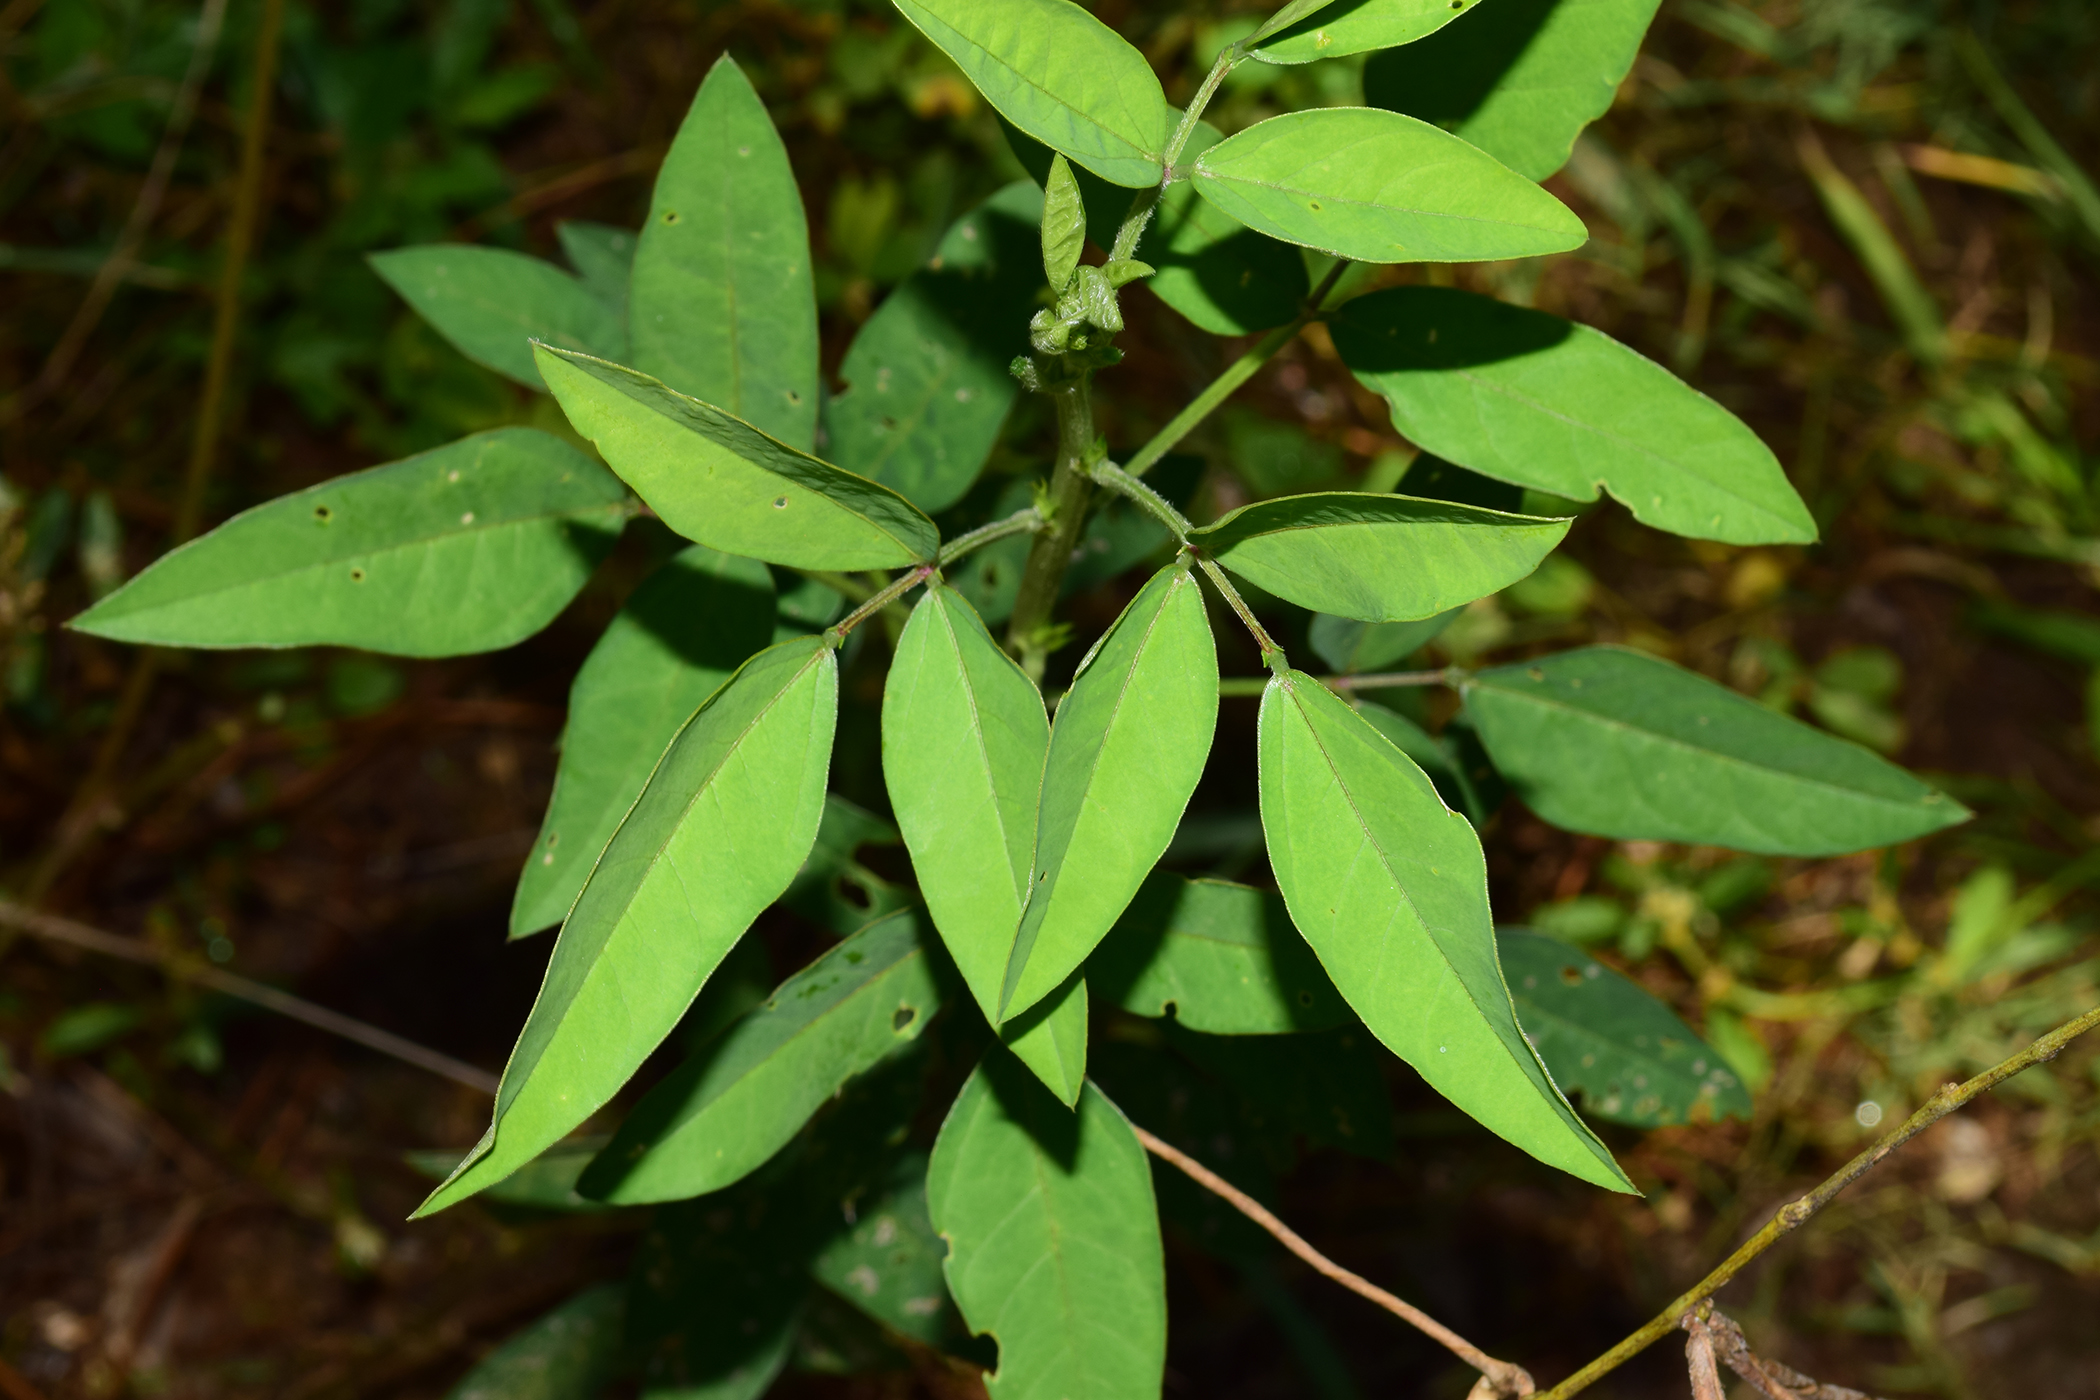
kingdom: Plantae
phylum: Tracheophyta
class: Magnoliopsida
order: Fabales
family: Fabaceae
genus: Macroptilium
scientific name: Macroptilium lathyroides
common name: Wild bushbean
